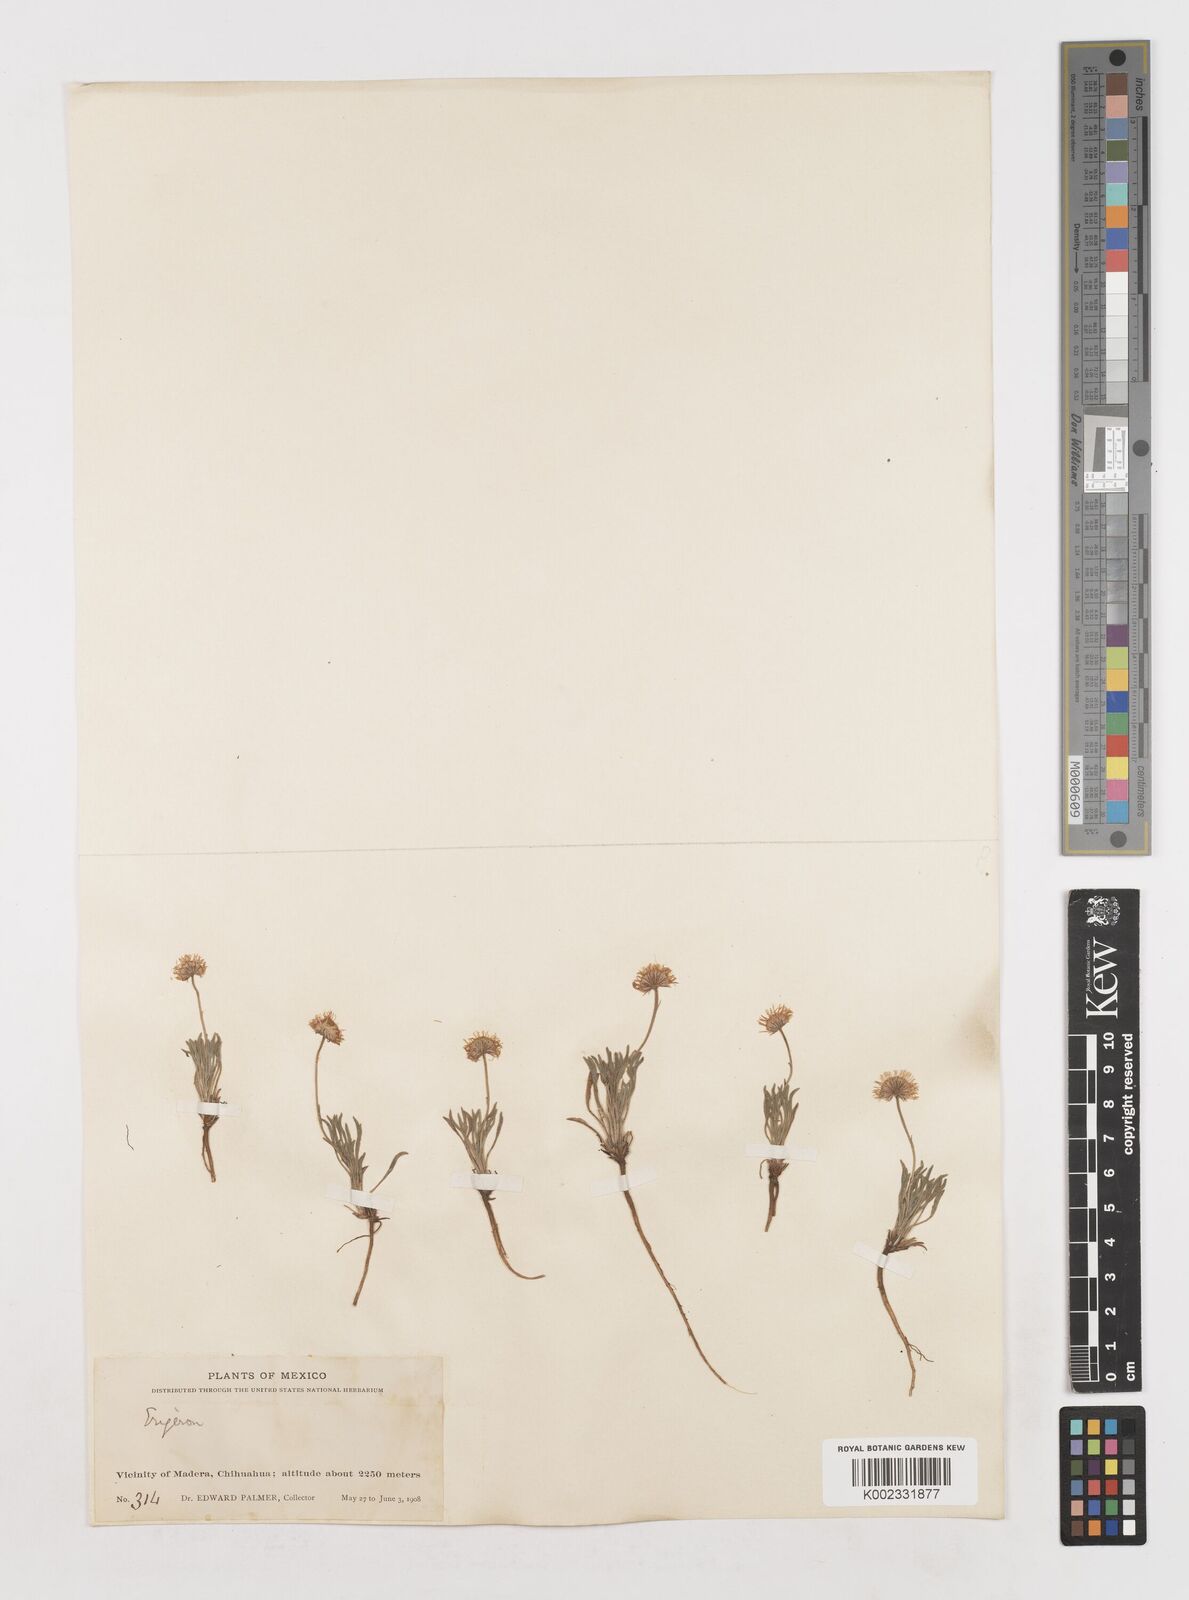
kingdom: Plantae
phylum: Tracheophyta
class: Magnoliopsida
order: Asterales
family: Asteraceae
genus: Erigeron
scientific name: Erigeron
